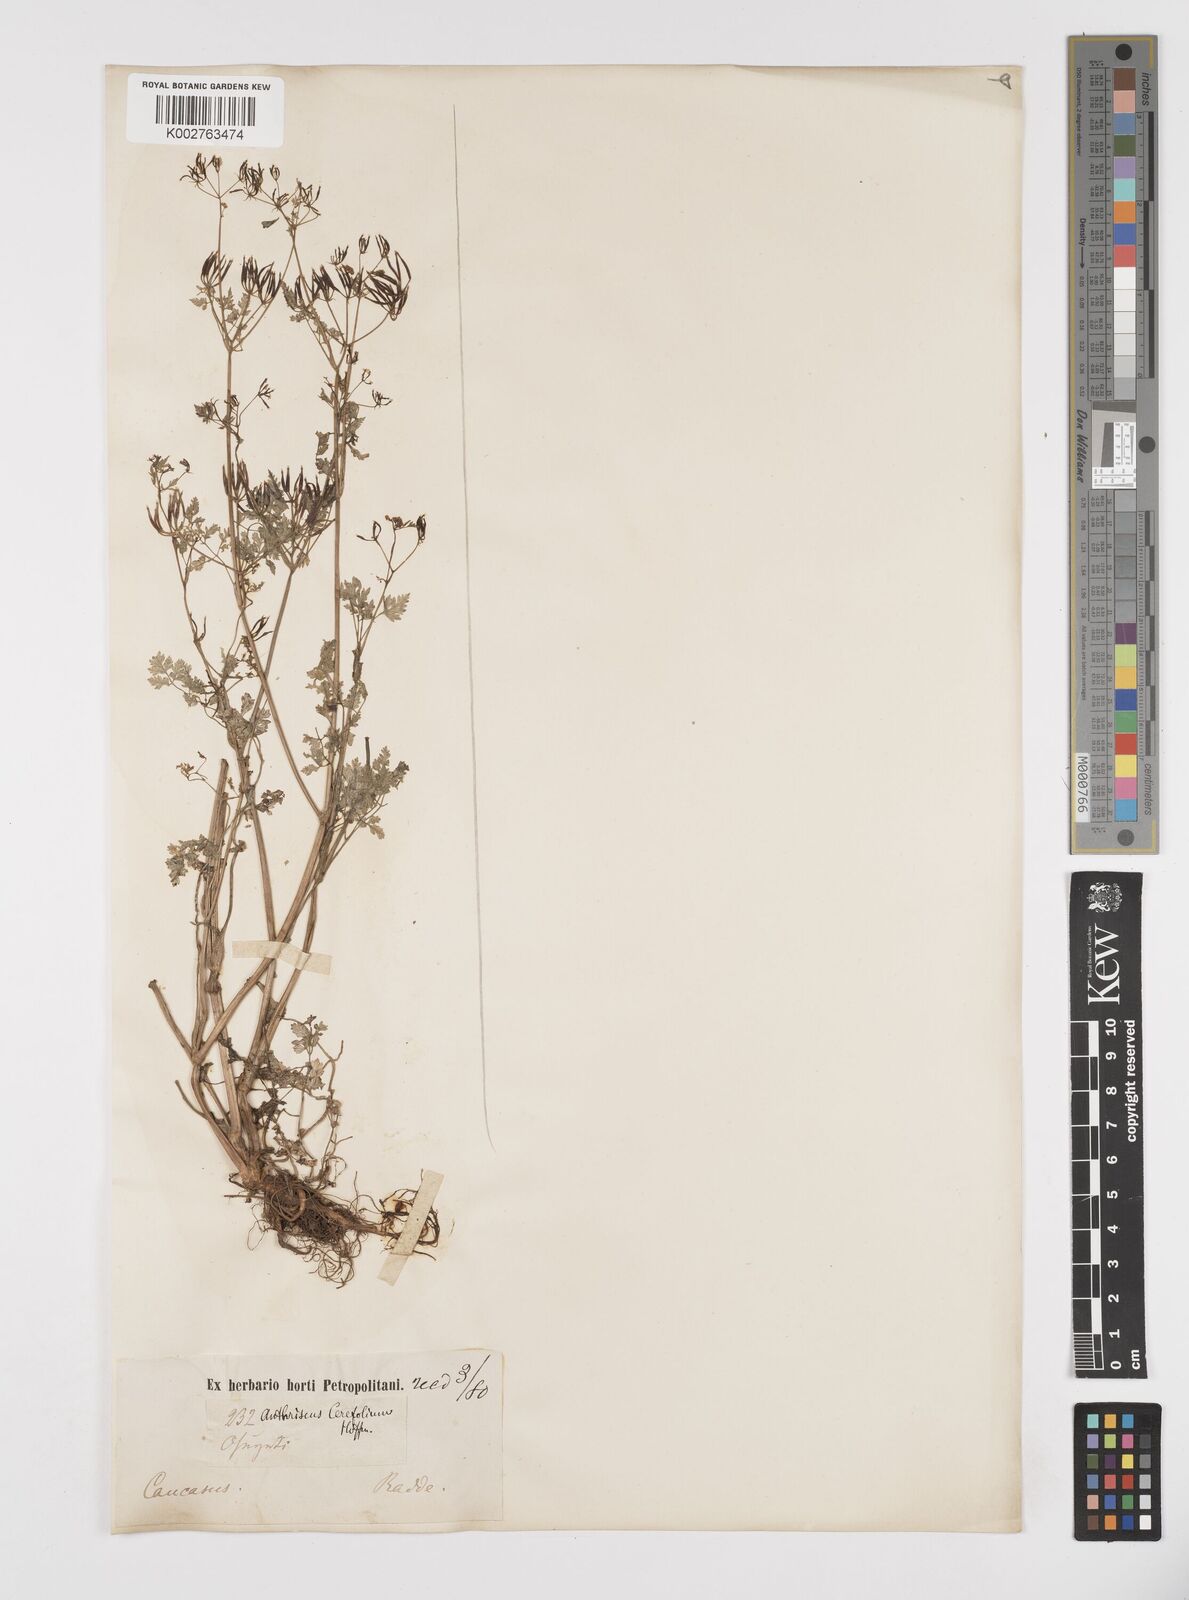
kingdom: Plantae
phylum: Tracheophyta
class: Magnoliopsida
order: Apiales
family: Apiaceae
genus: Anthriscus
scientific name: Anthriscus cerefolium
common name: Garden chervil
